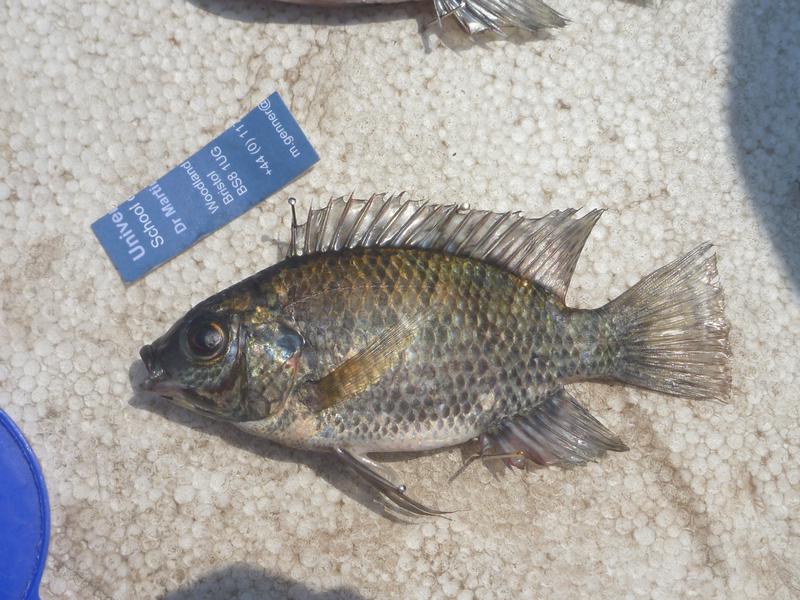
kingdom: Animalia
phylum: Chordata
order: Perciformes
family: Cichlidae
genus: Oreochromis
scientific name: Oreochromis leucostictus
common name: Blue spotted tilapia
